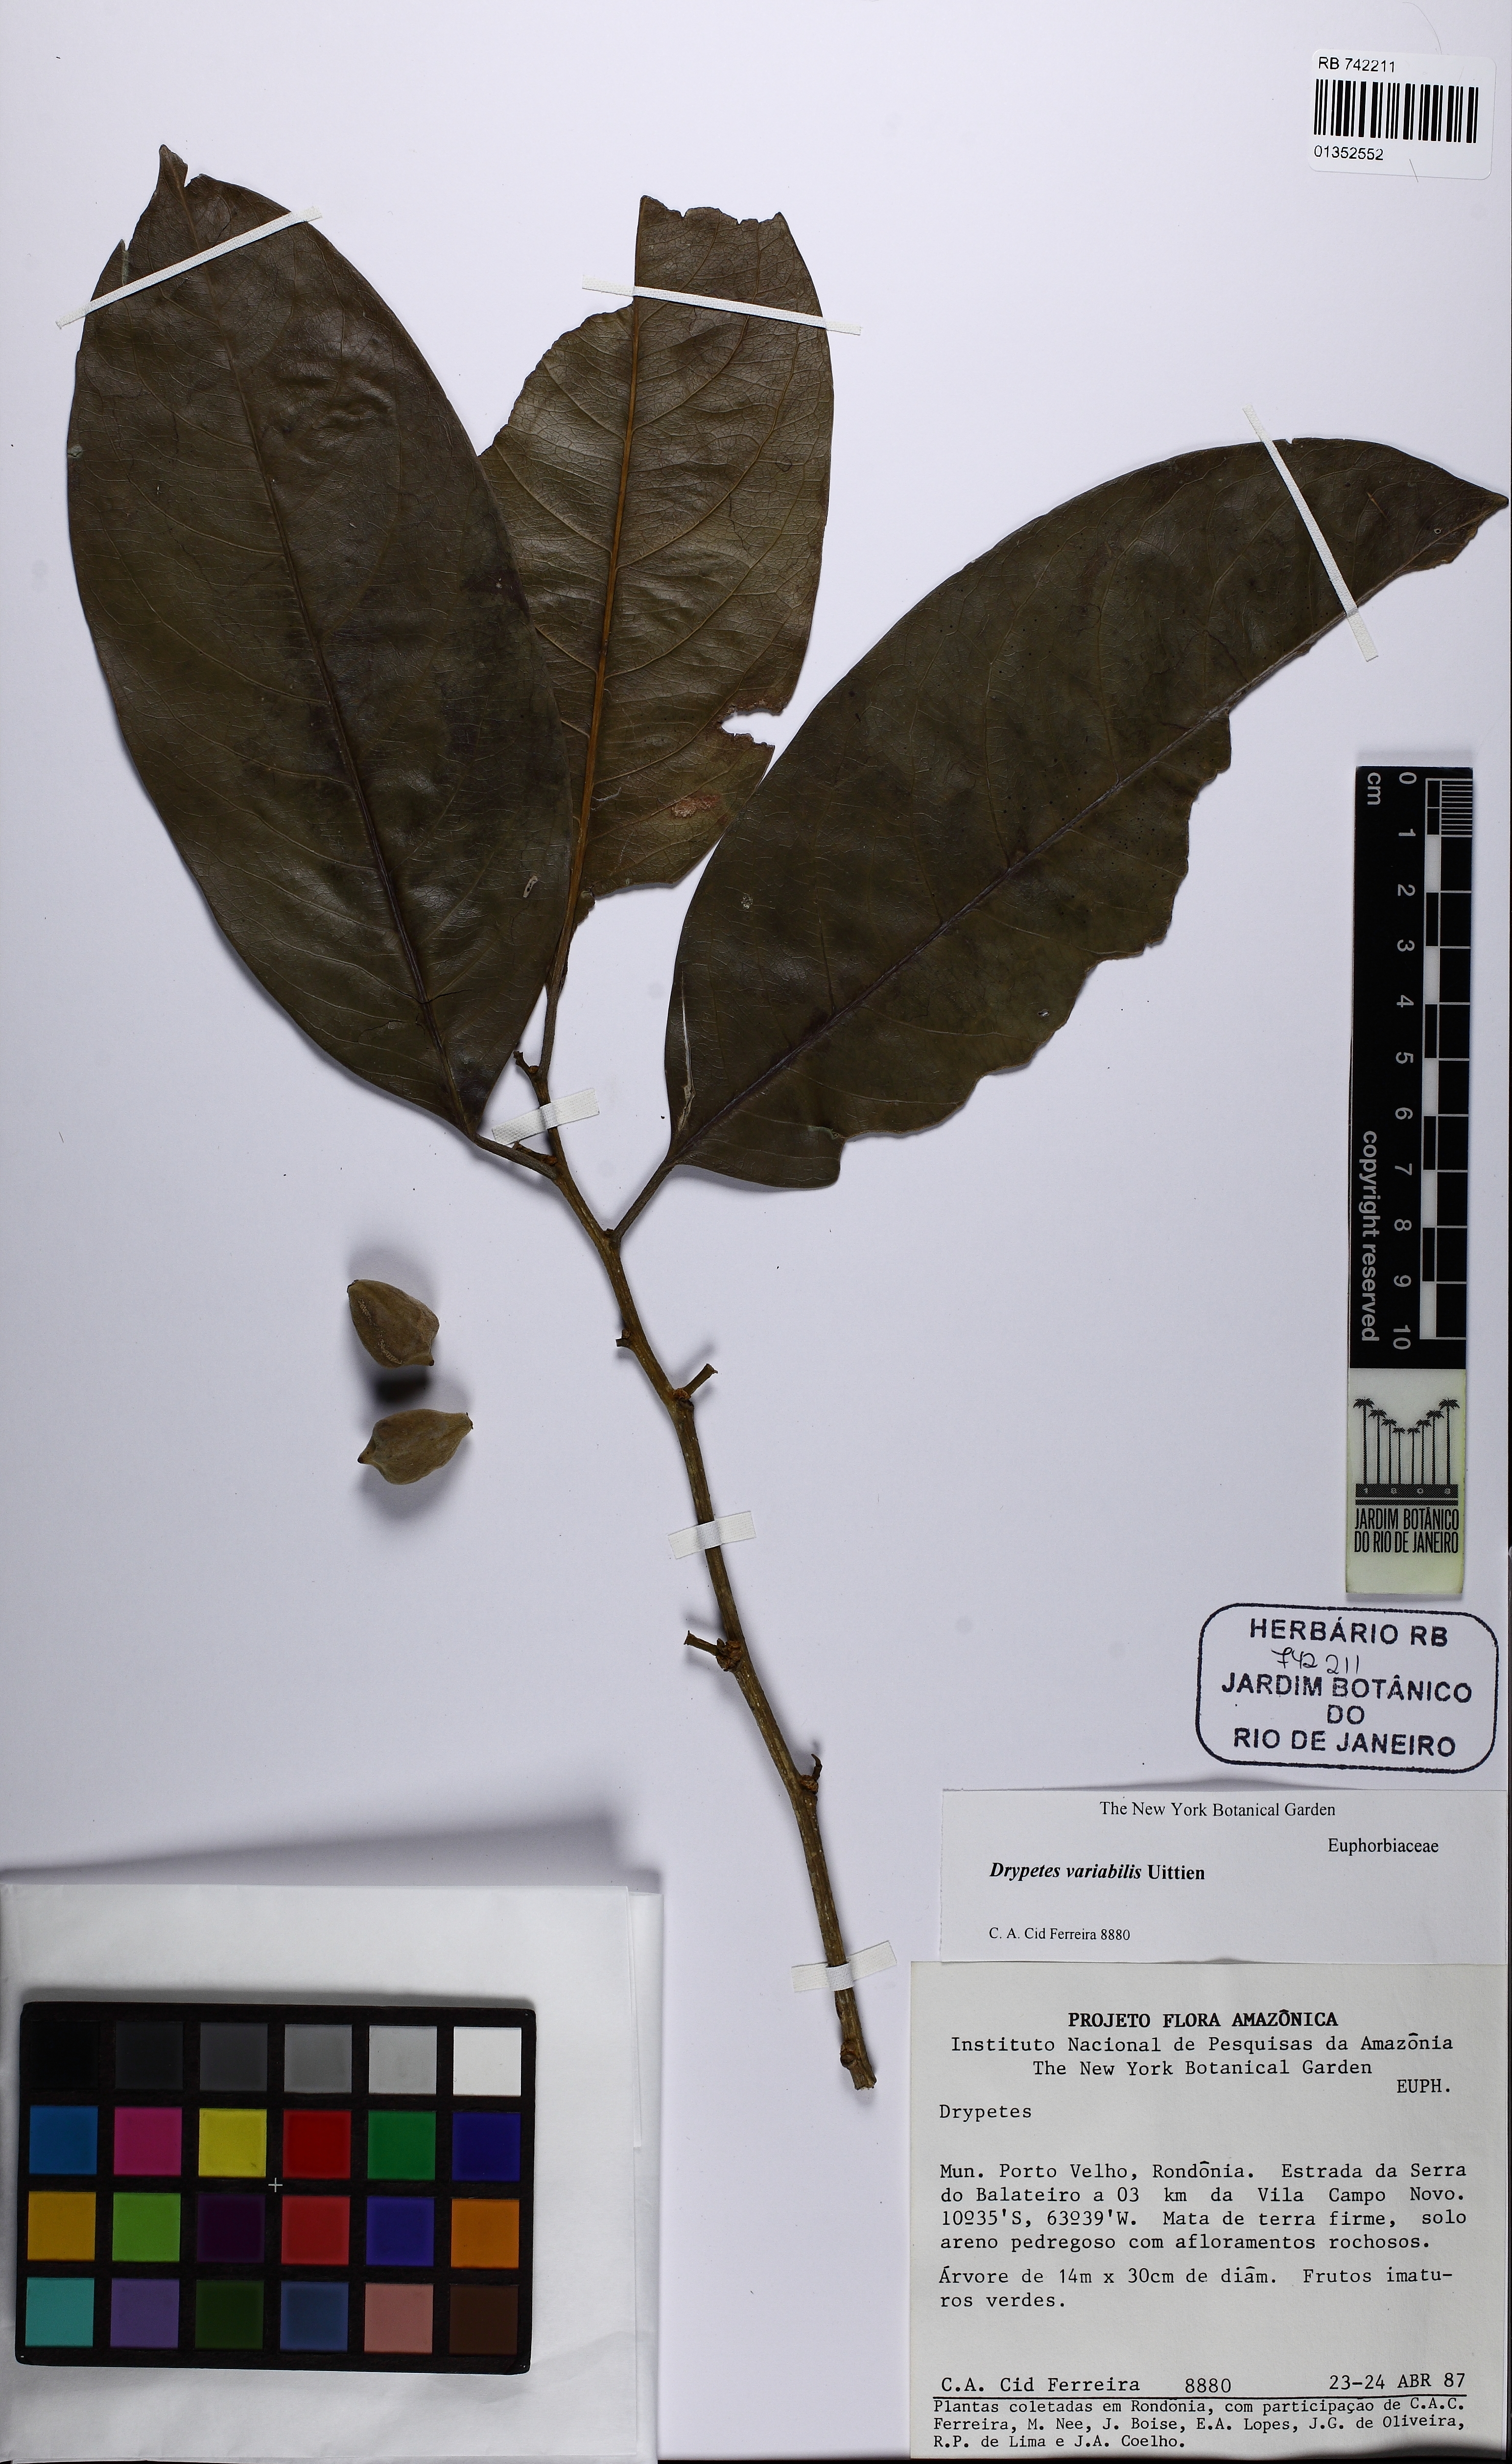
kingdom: Plantae
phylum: Tracheophyta
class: Magnoliopsida
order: Malpighiales
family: Putranjivaceae
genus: Drypetes
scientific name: Drypetes variabilis
